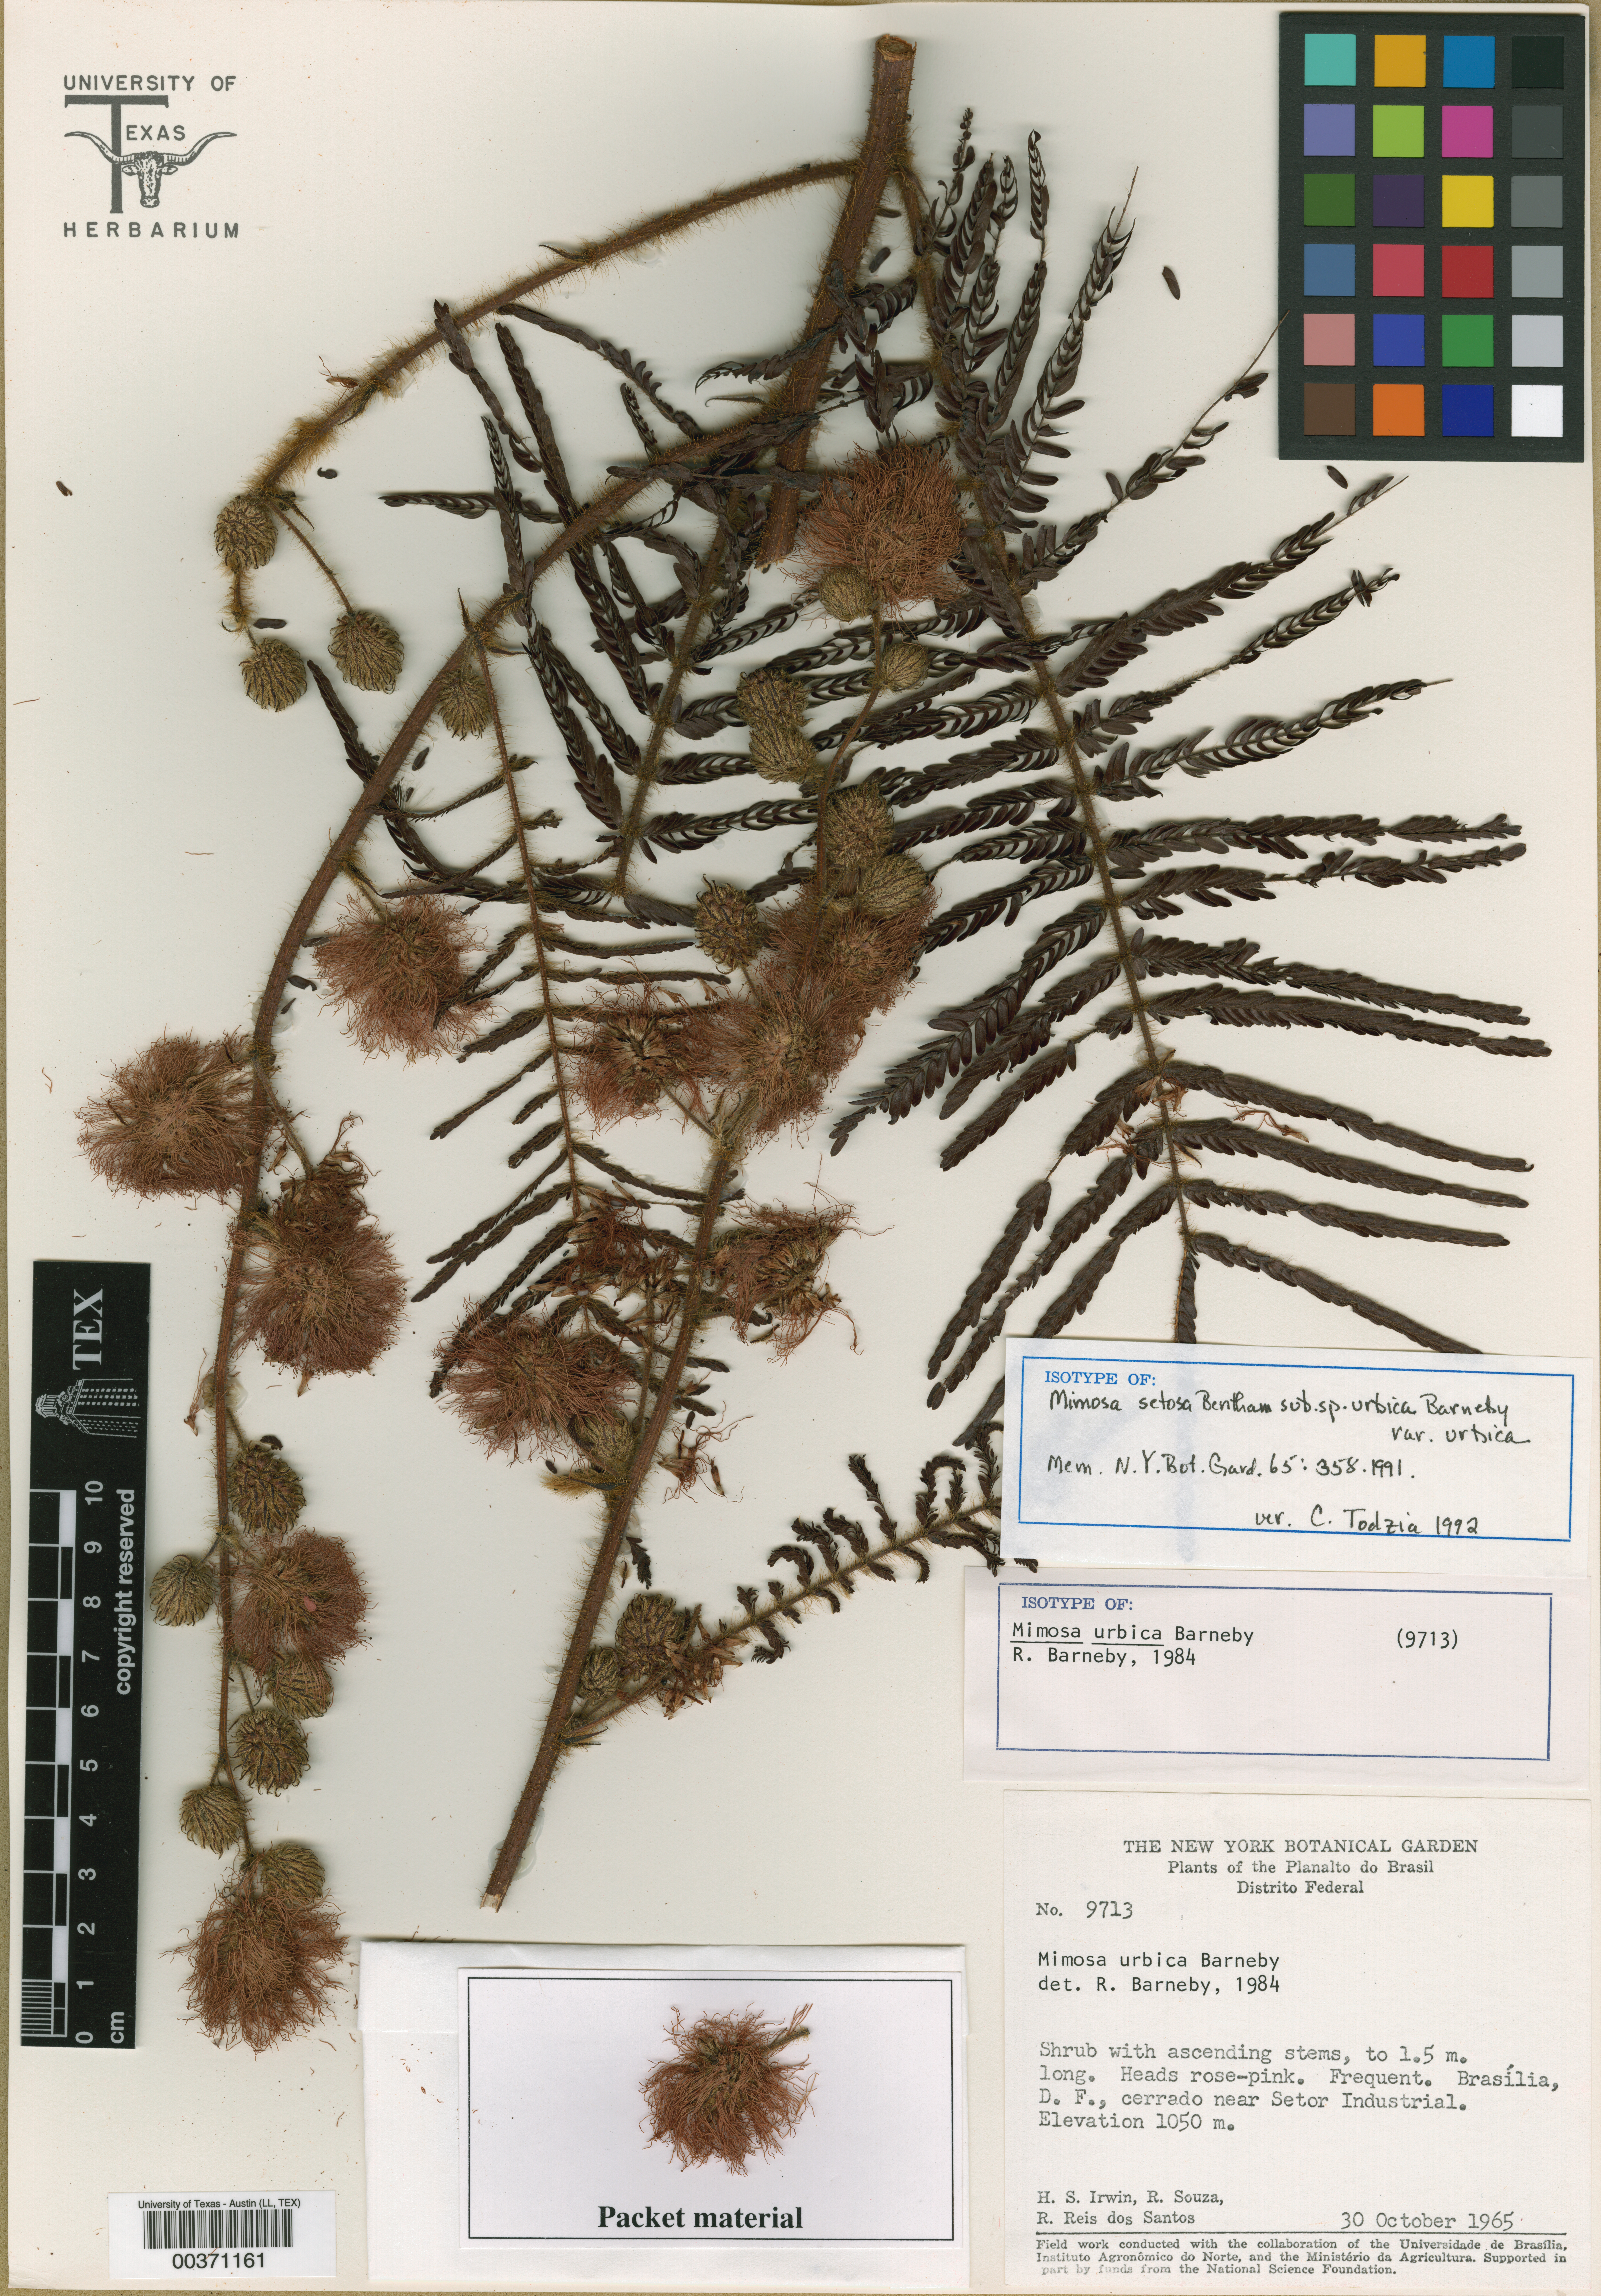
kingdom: Plantae
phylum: Tracheophyta
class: Magnoliopsida
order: Malpighiales
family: Hypericaceae
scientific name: Hypericaceae
